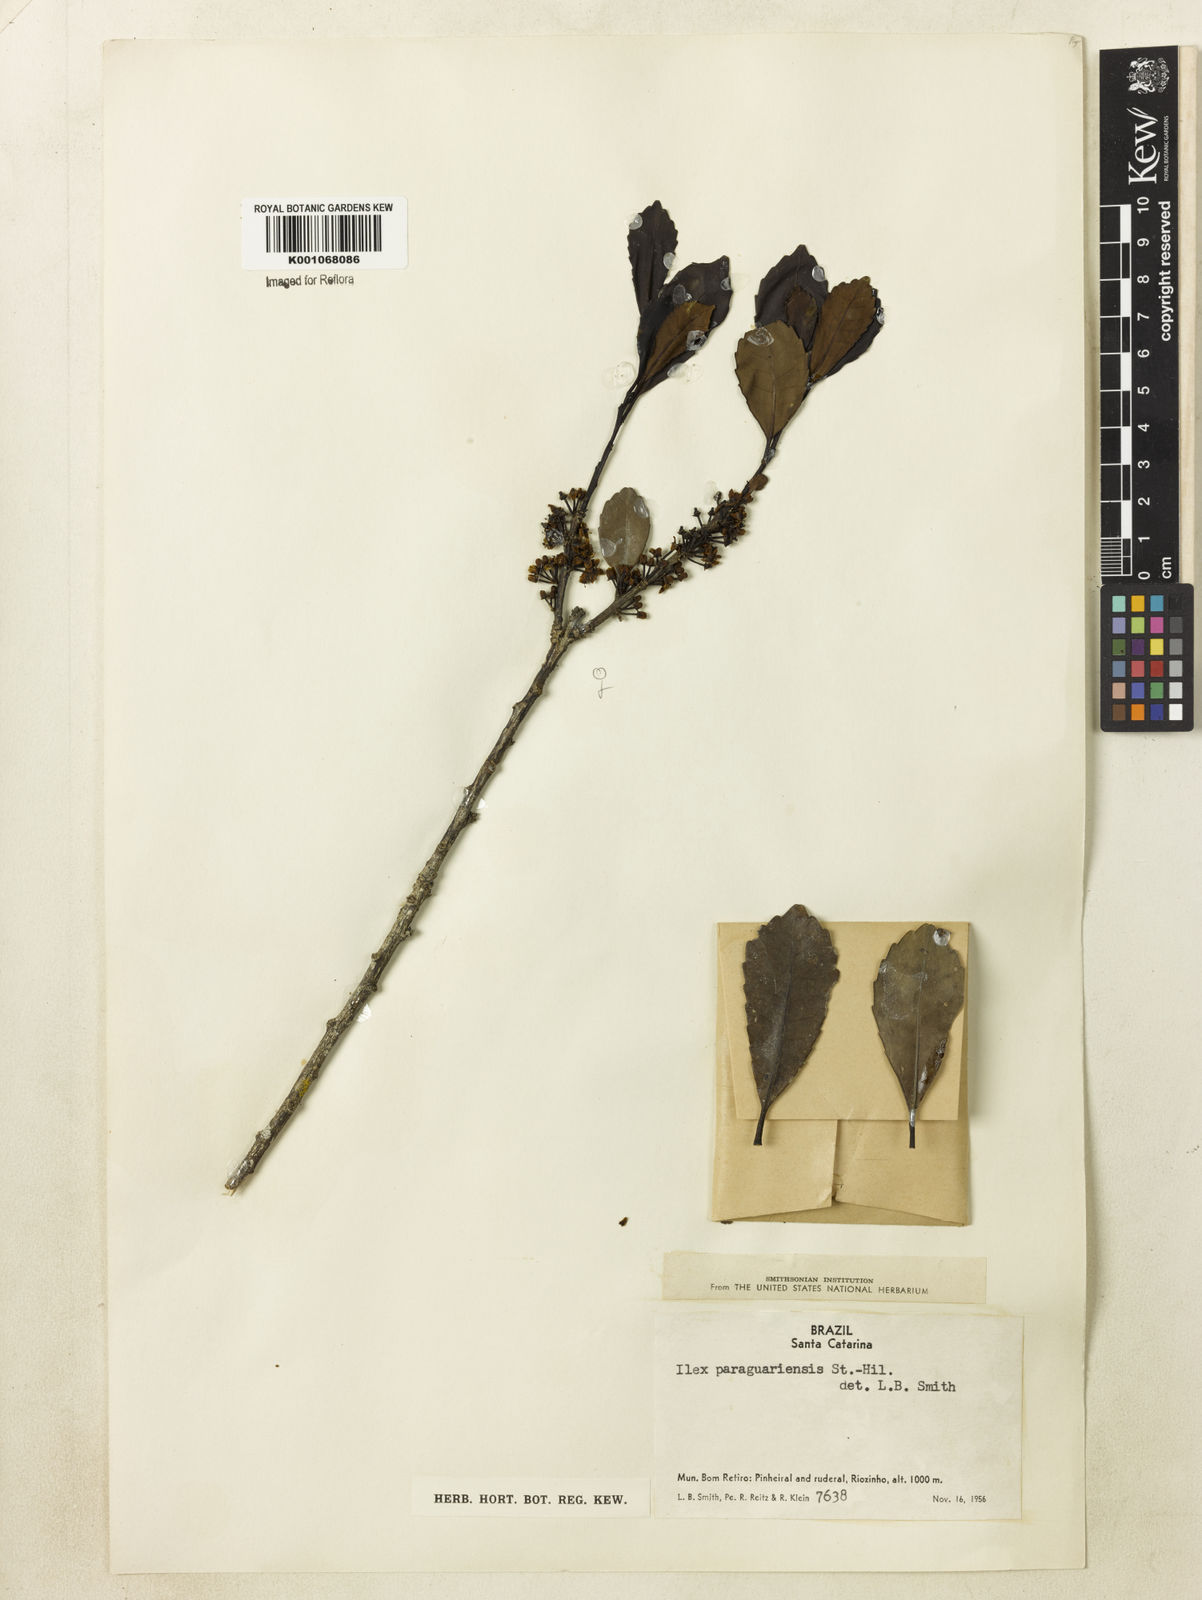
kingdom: Plantae
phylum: Tracheophyta
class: Magnoliopsida
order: Aquifoliales
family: Aquifoliaceae
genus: Ilex
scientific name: Ilex paraguariensis
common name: Paraguay tea
